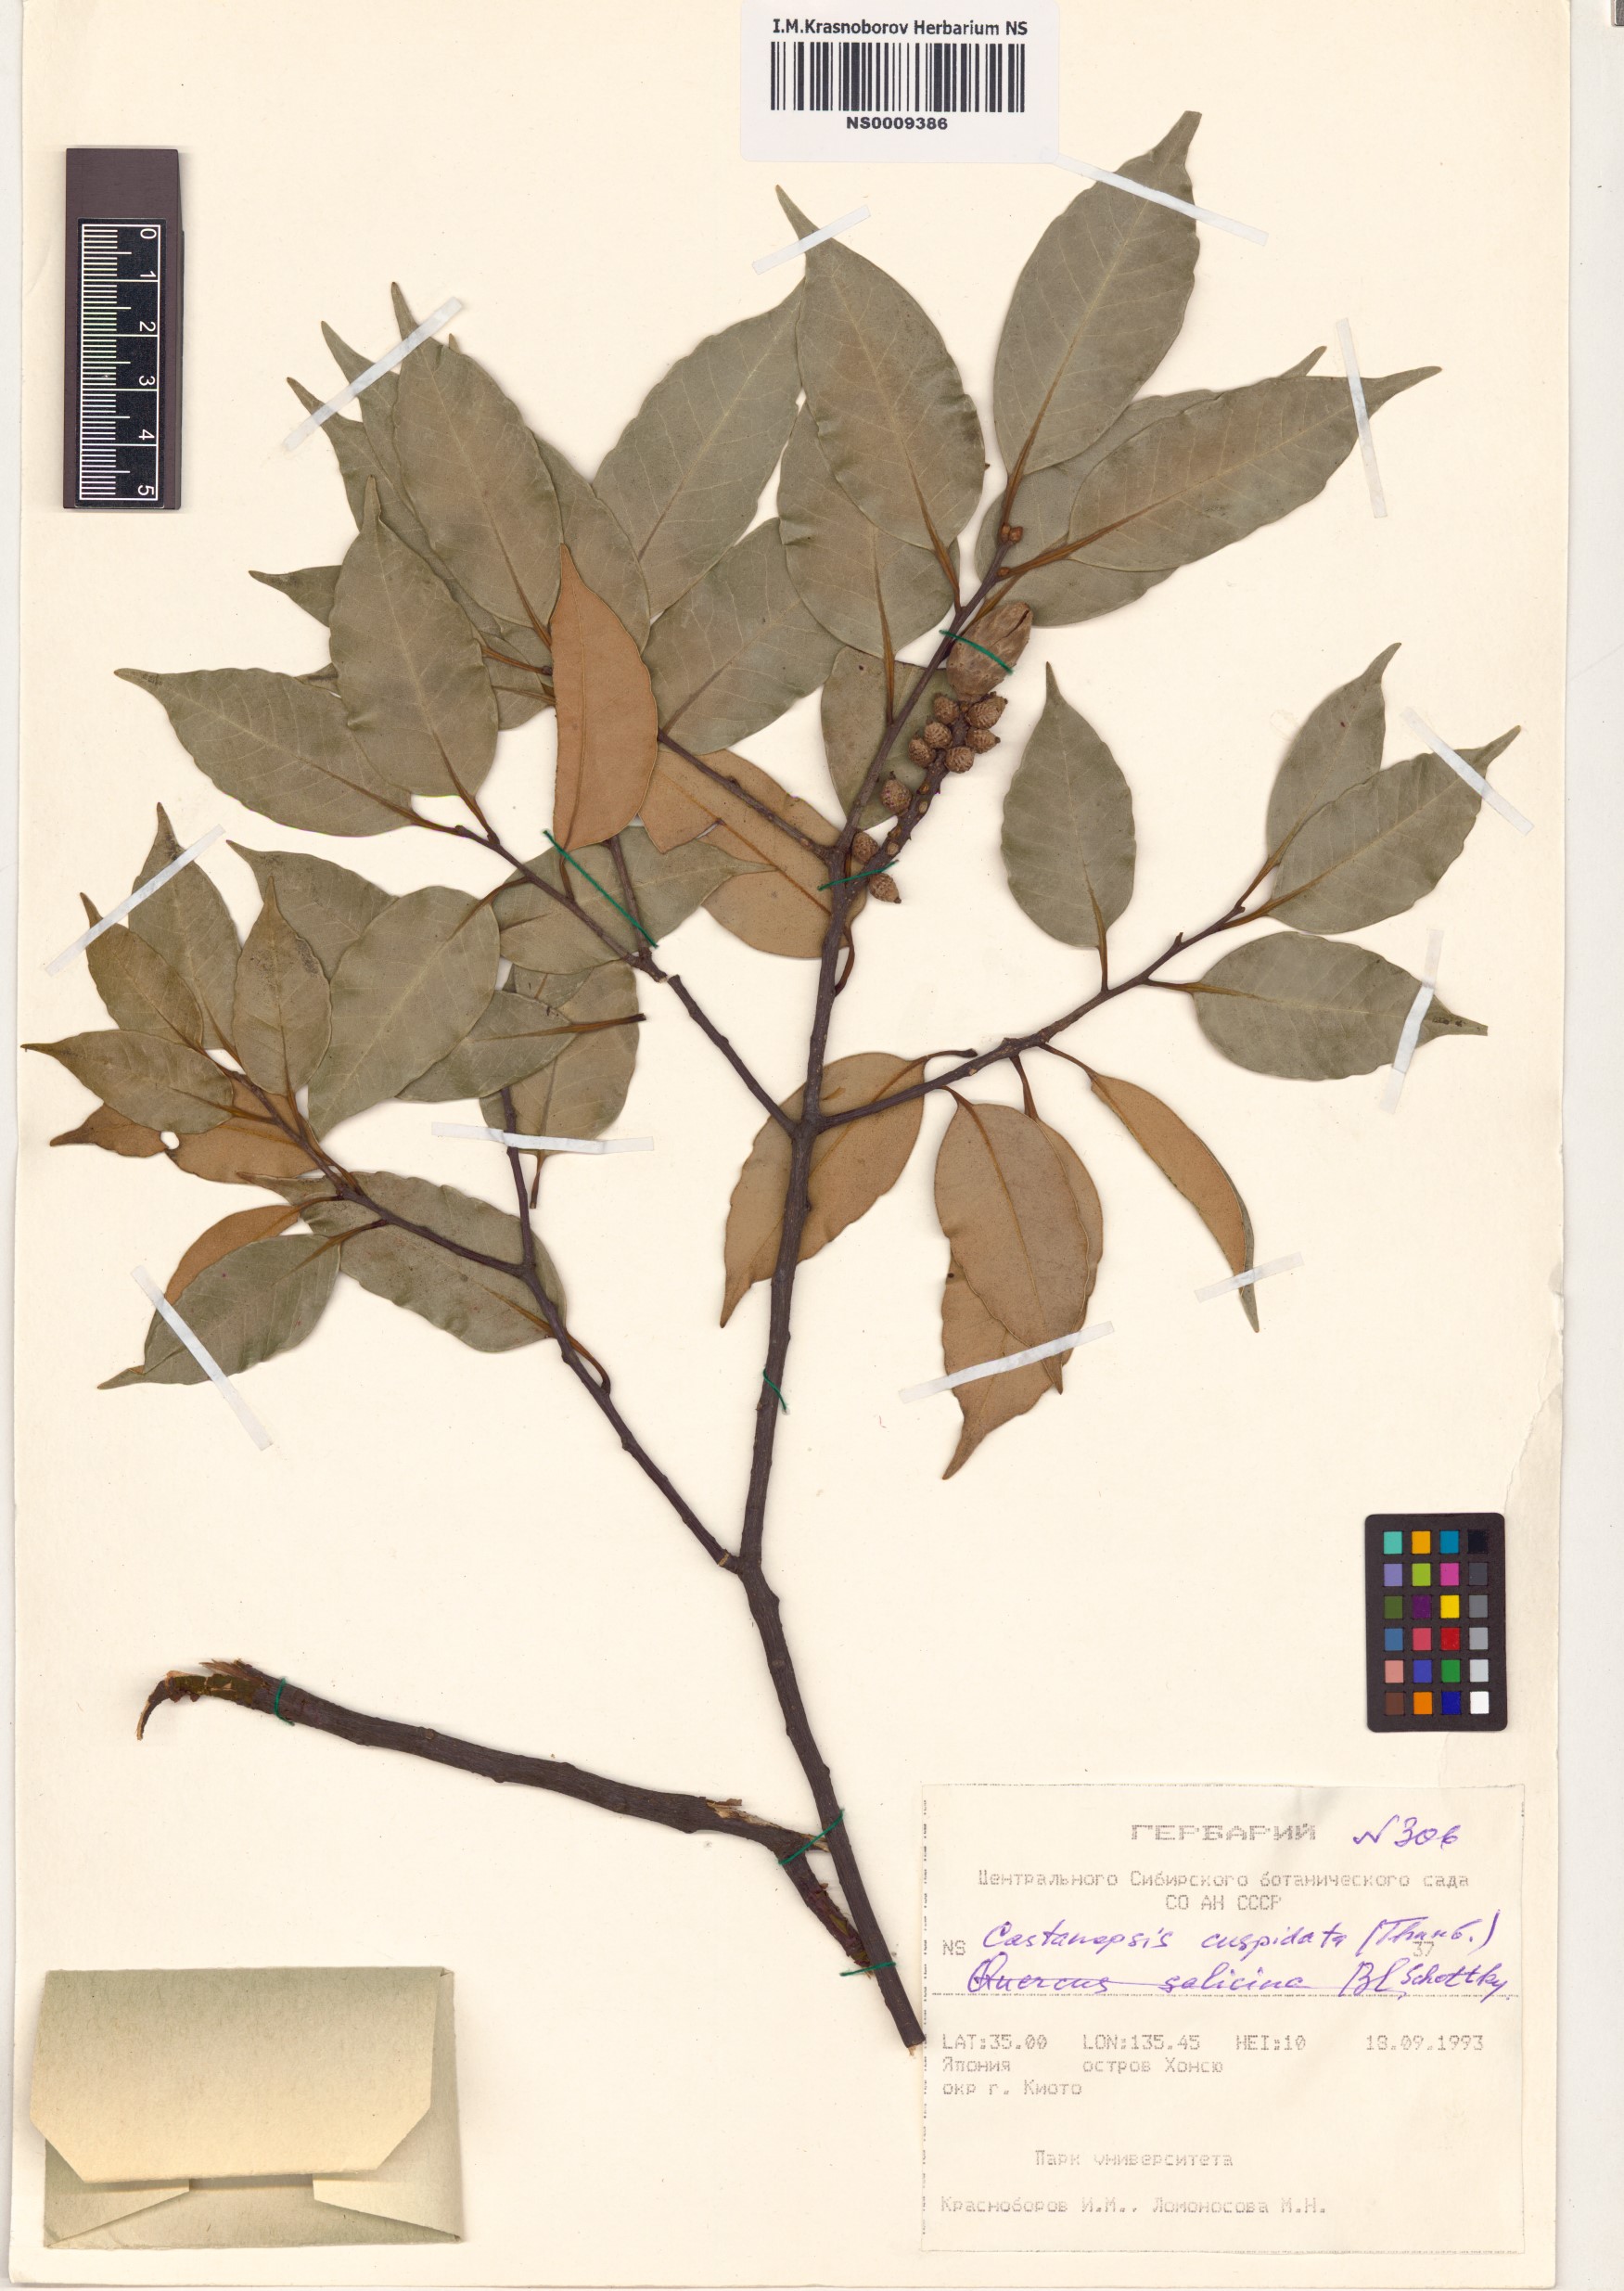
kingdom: Plantae
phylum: Tracheophyta
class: Magnoliopsida
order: Fagales
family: Fagaceae
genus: Castanopsis
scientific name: Castanopsis cuspidata
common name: Japanese chinquapin
